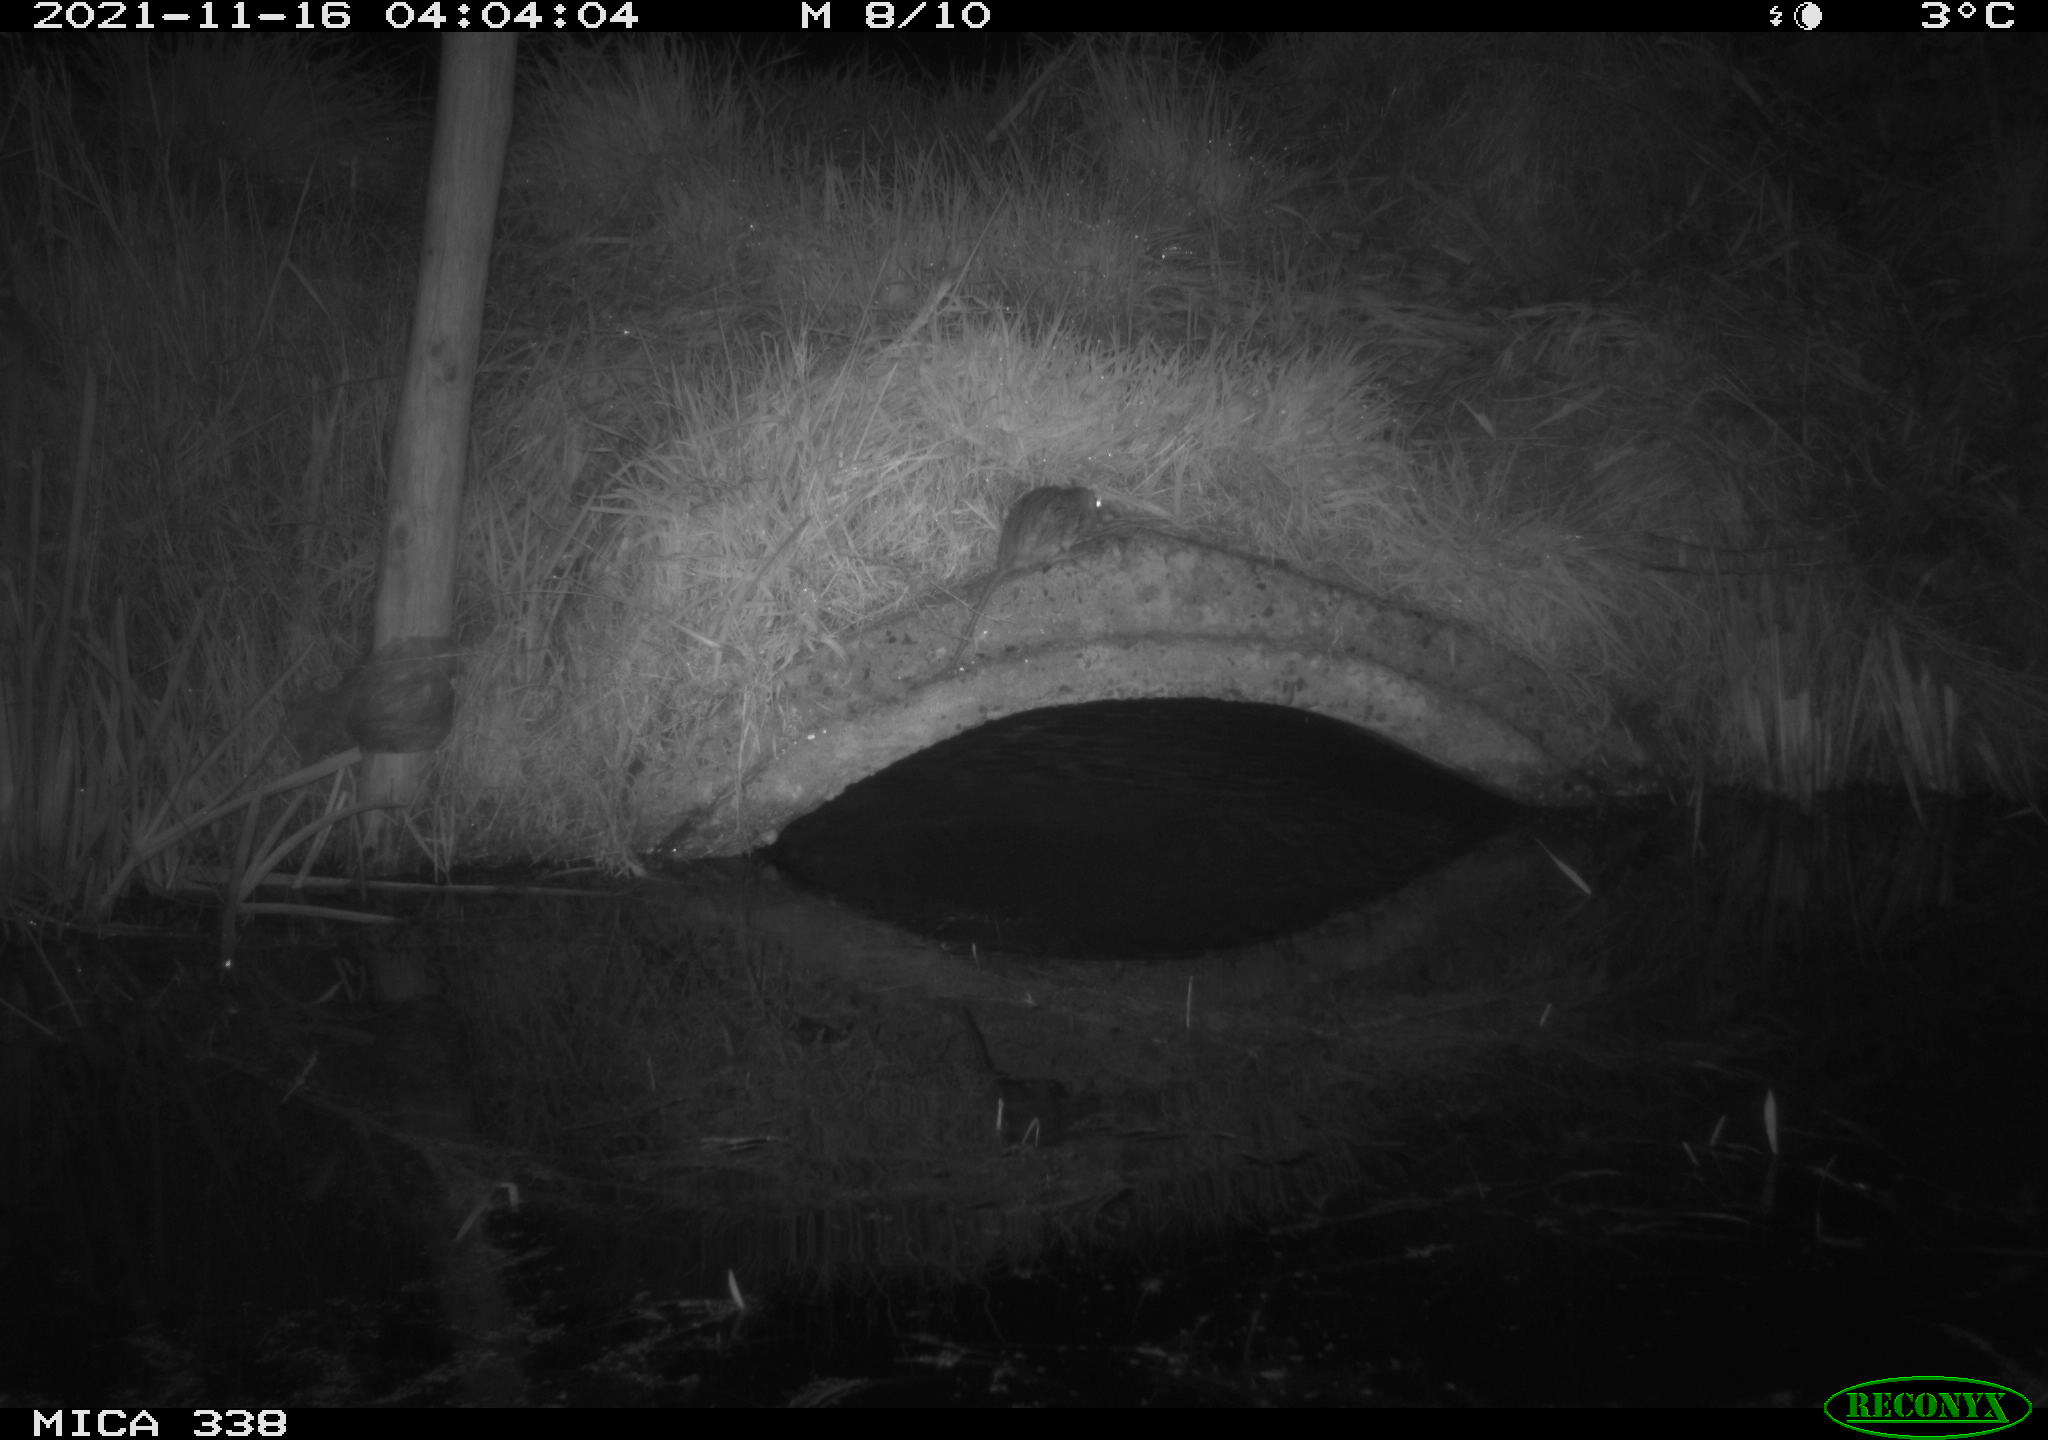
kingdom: Animalia
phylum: Chordata
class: Mammalia
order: Rodentia
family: Muridae
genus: Rattus
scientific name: Rattus norvegicus
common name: Brown rat
